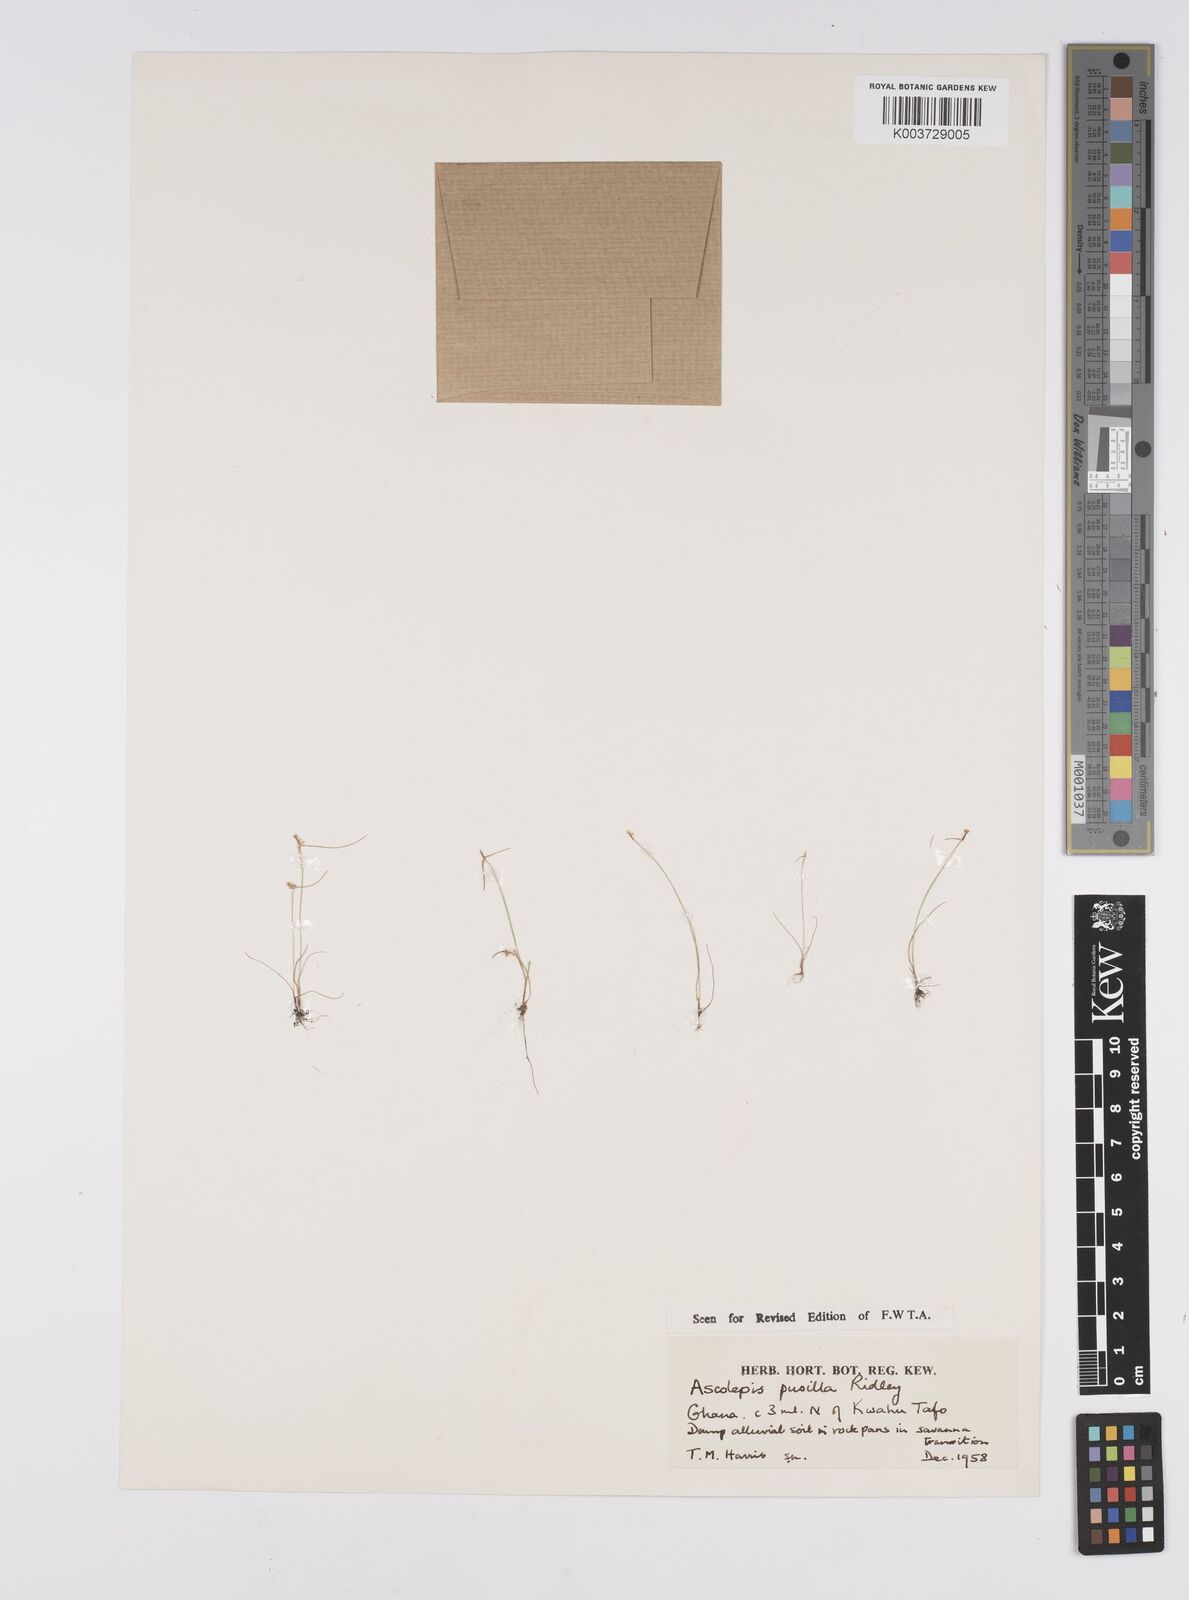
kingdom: Plantae
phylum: Tracheophyta
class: Liliopsida
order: Poales
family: Cyperaceae
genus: Ascolepis
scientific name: Ascolepis
